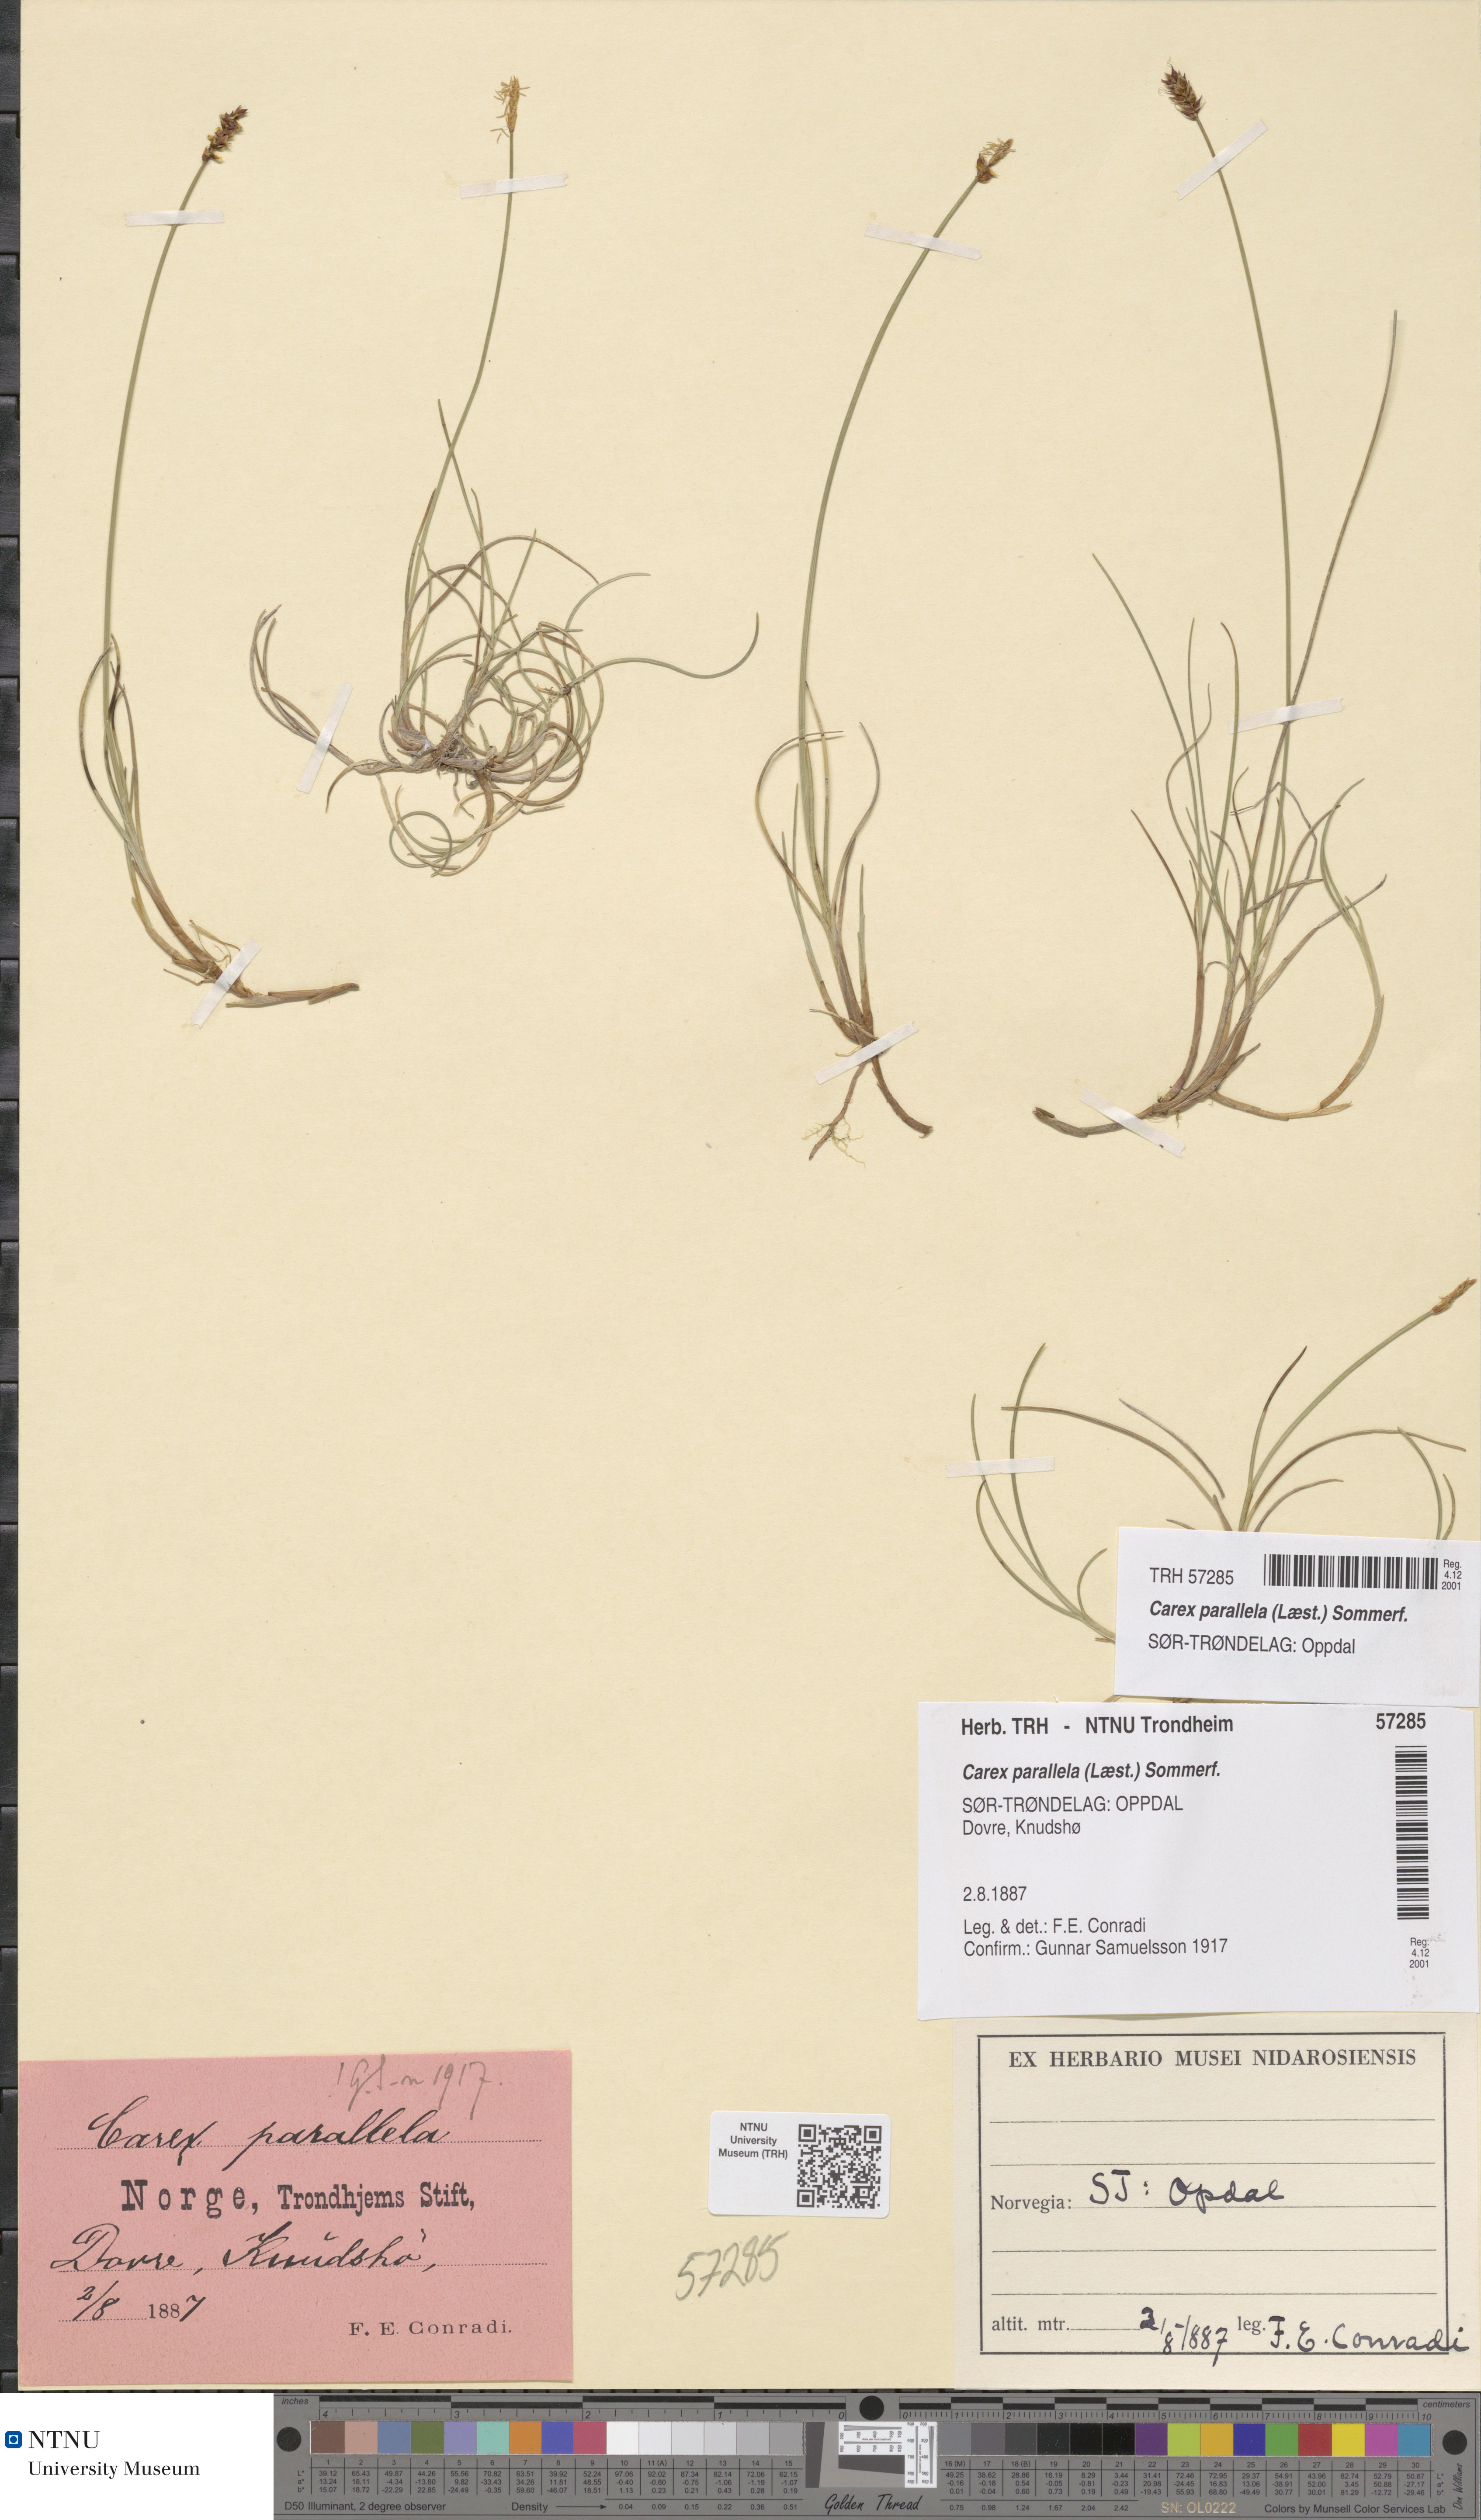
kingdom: Plantae
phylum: Tracheophyta
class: Liliopsida
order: Poales
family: Cyperaceae
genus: Carex
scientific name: Carex parallela
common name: Parallel sedge
